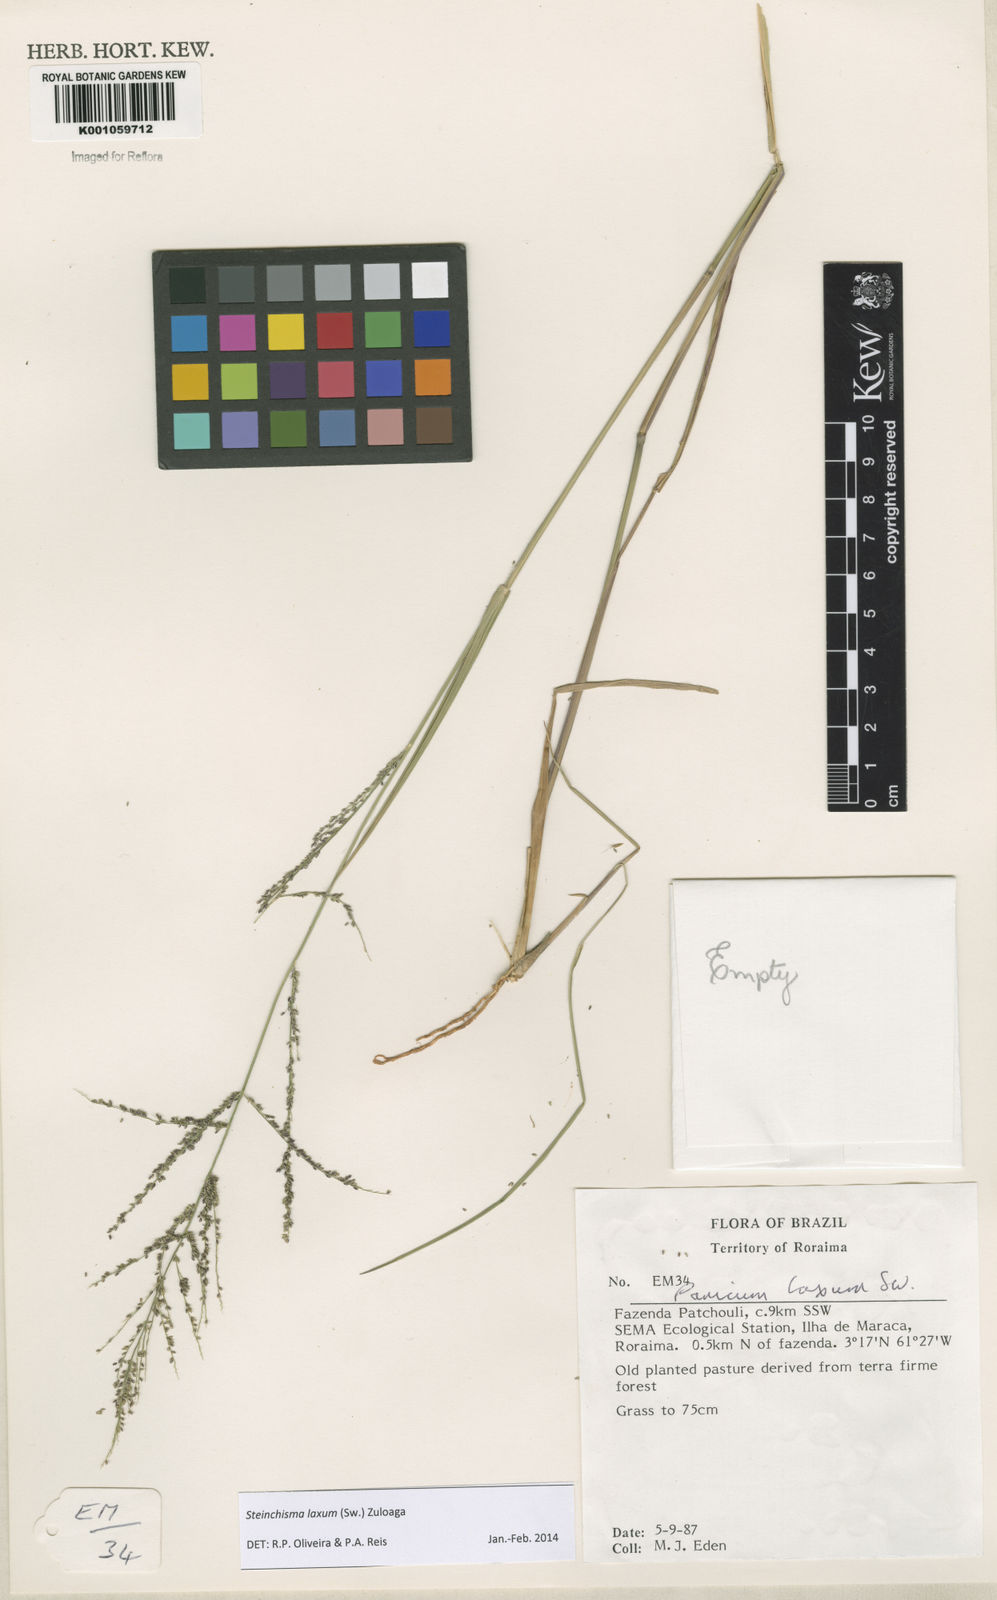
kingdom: Plantae
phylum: Tracheophyta
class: Liliopsida
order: Poales
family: Poaceae
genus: Steinchisma
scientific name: Steinchisma laxum
